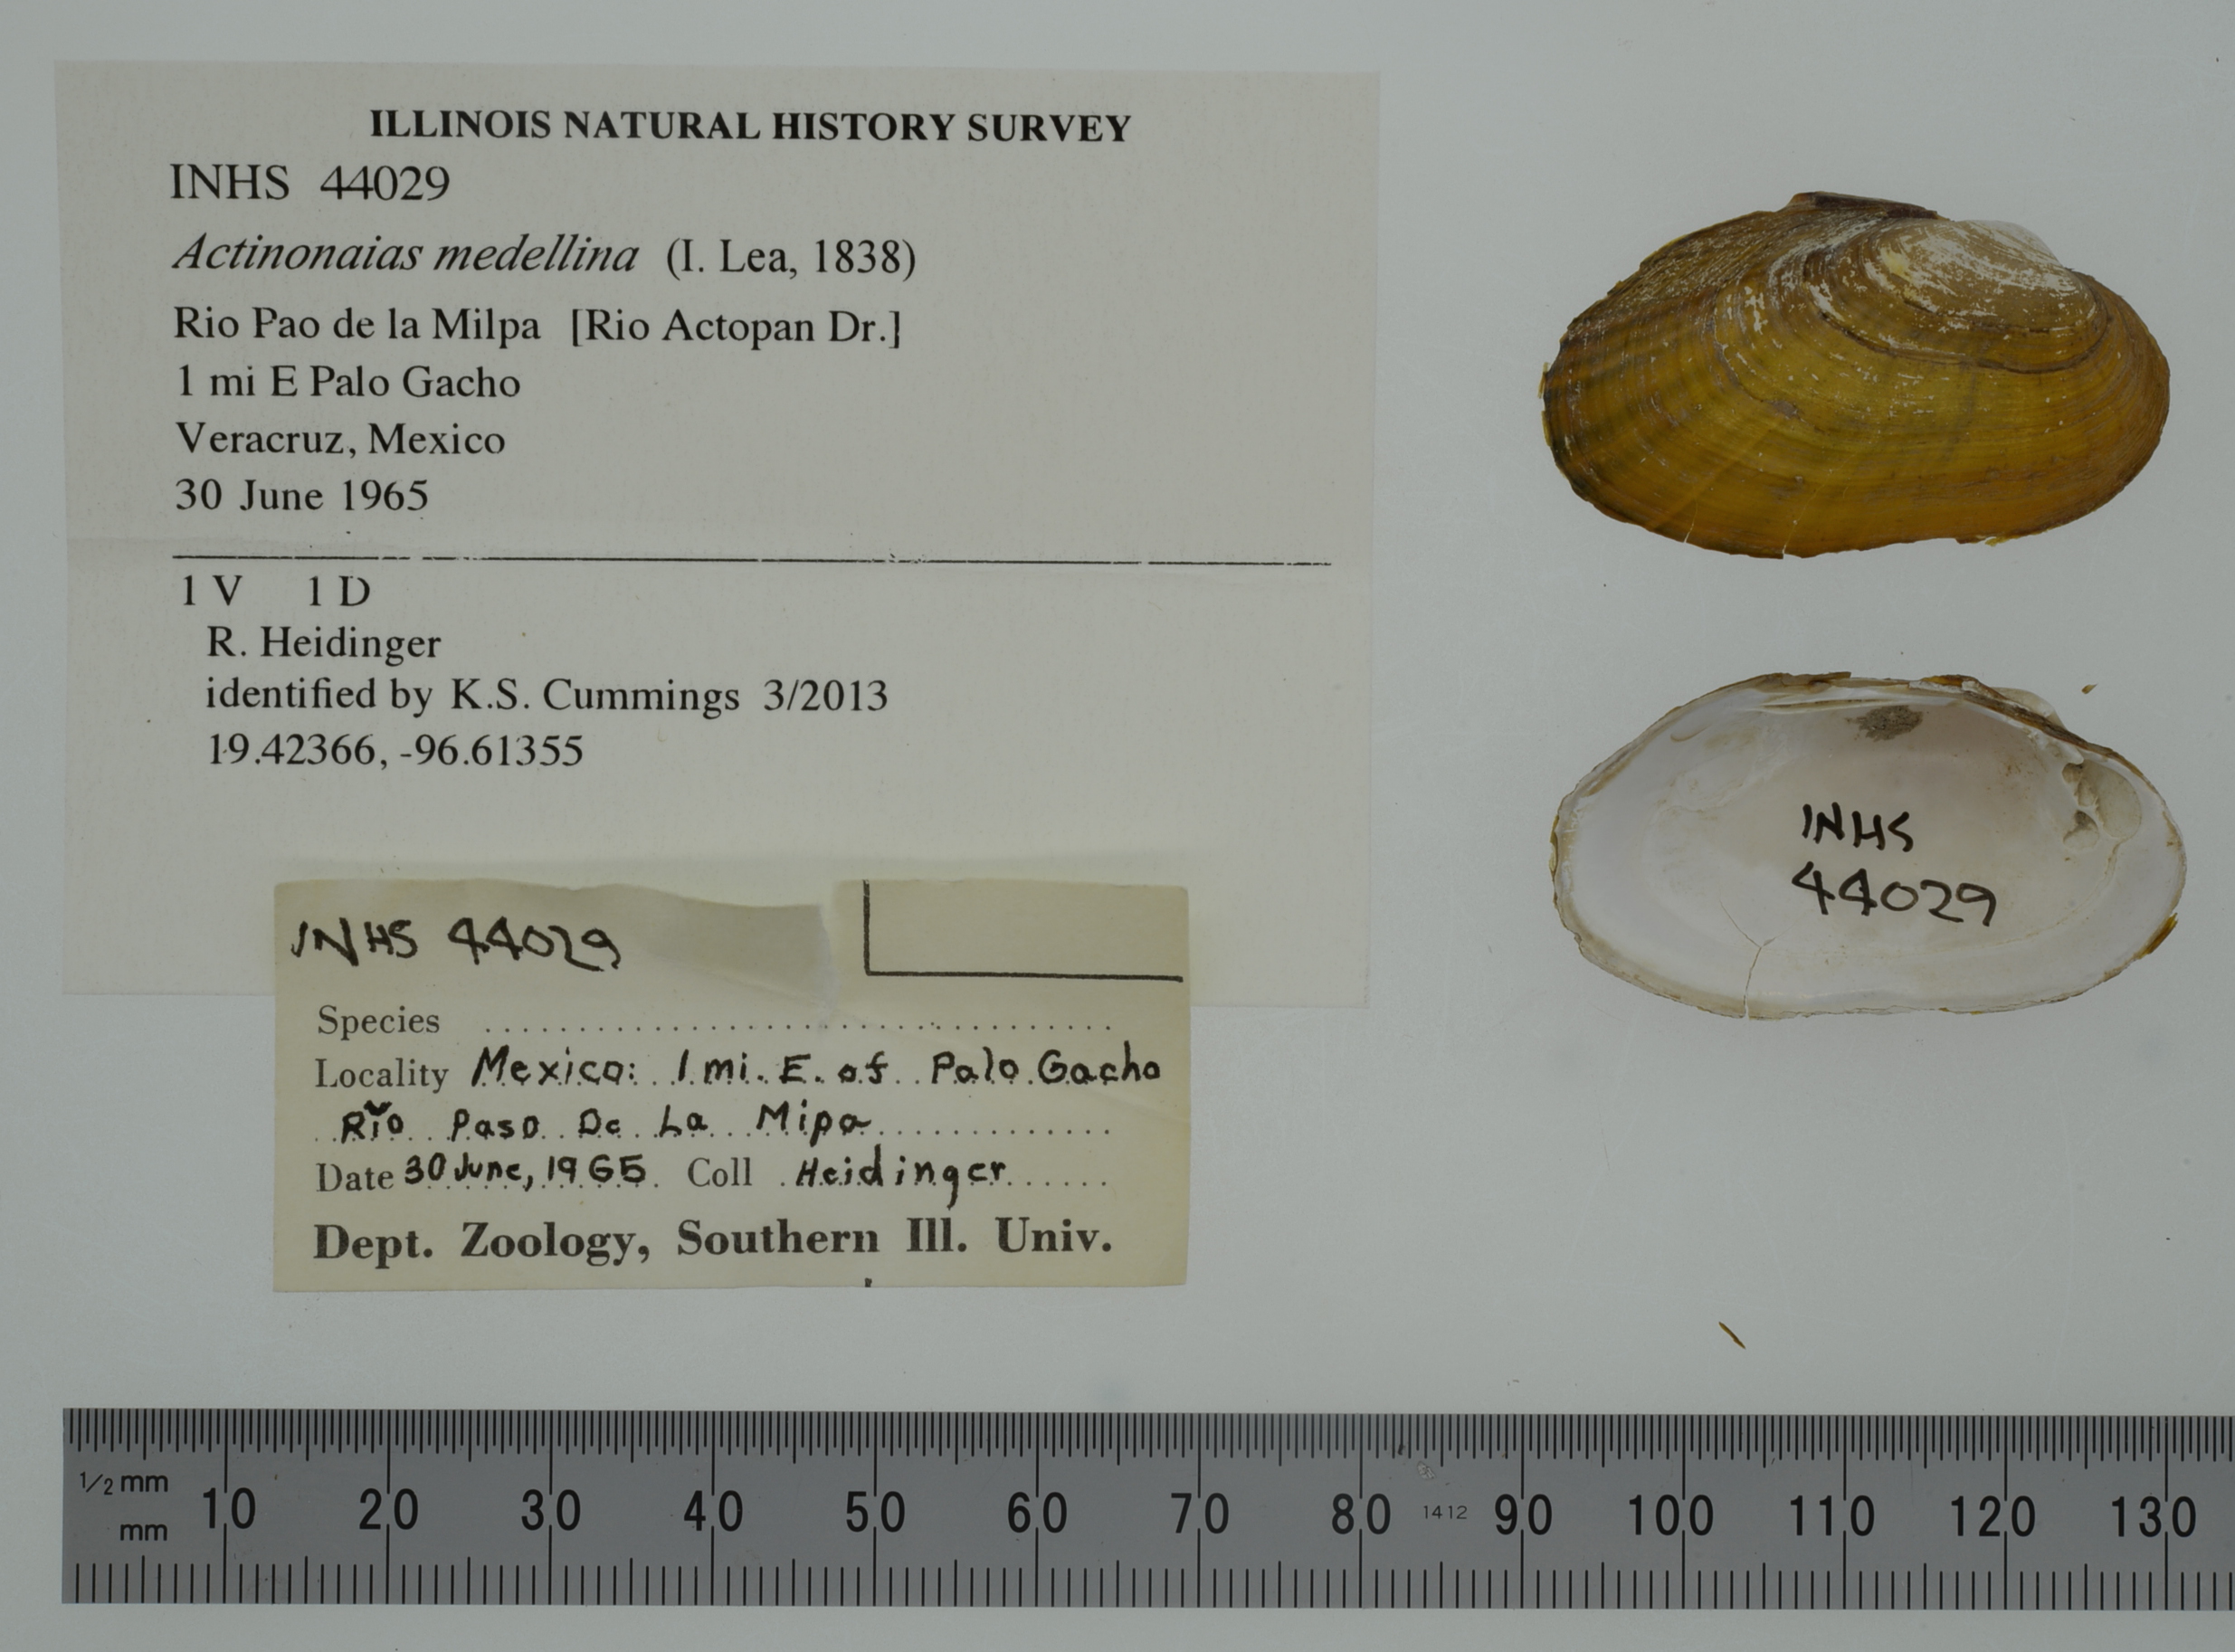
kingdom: Animalia
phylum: Mollusca
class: Bivalvia
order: Unionida
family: Unionidae
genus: Actinonaias
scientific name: Actinonaias medellina
